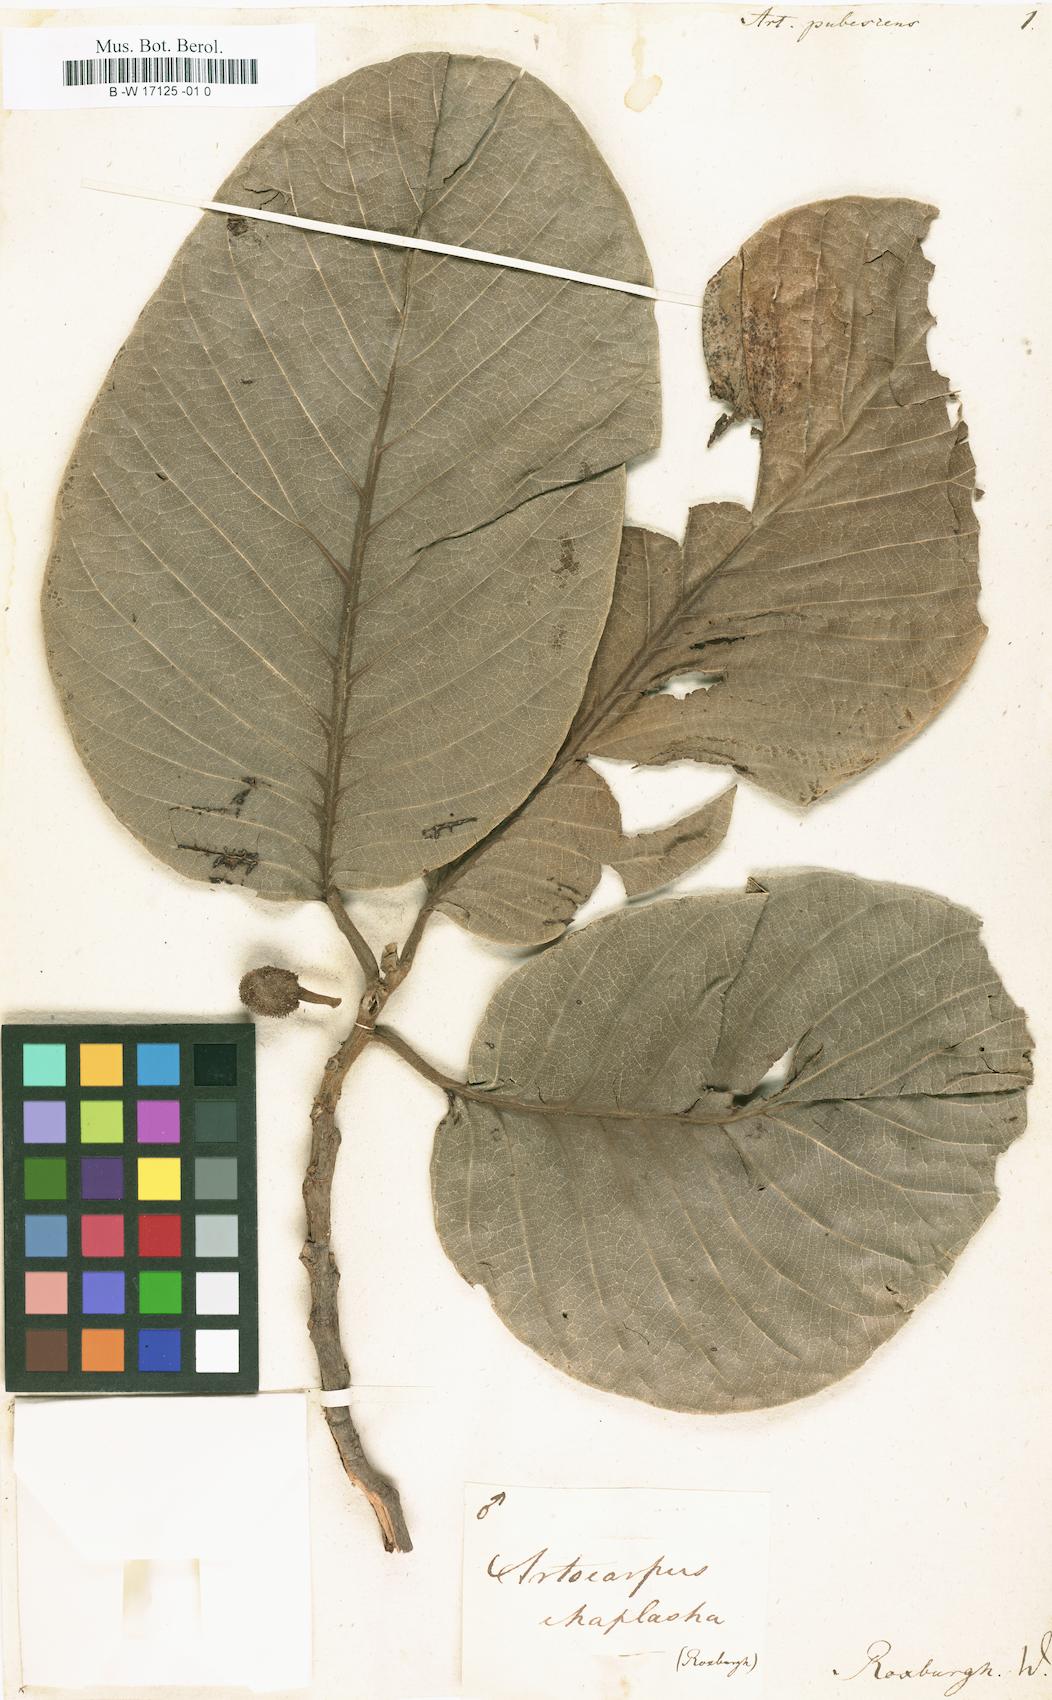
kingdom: Plantae
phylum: Tracheophyta
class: Magnoliopsida
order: Rosales
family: Moraceae
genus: Artocarpus
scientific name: Artocarpus hirsutus
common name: Hairy bread-fruit tree
